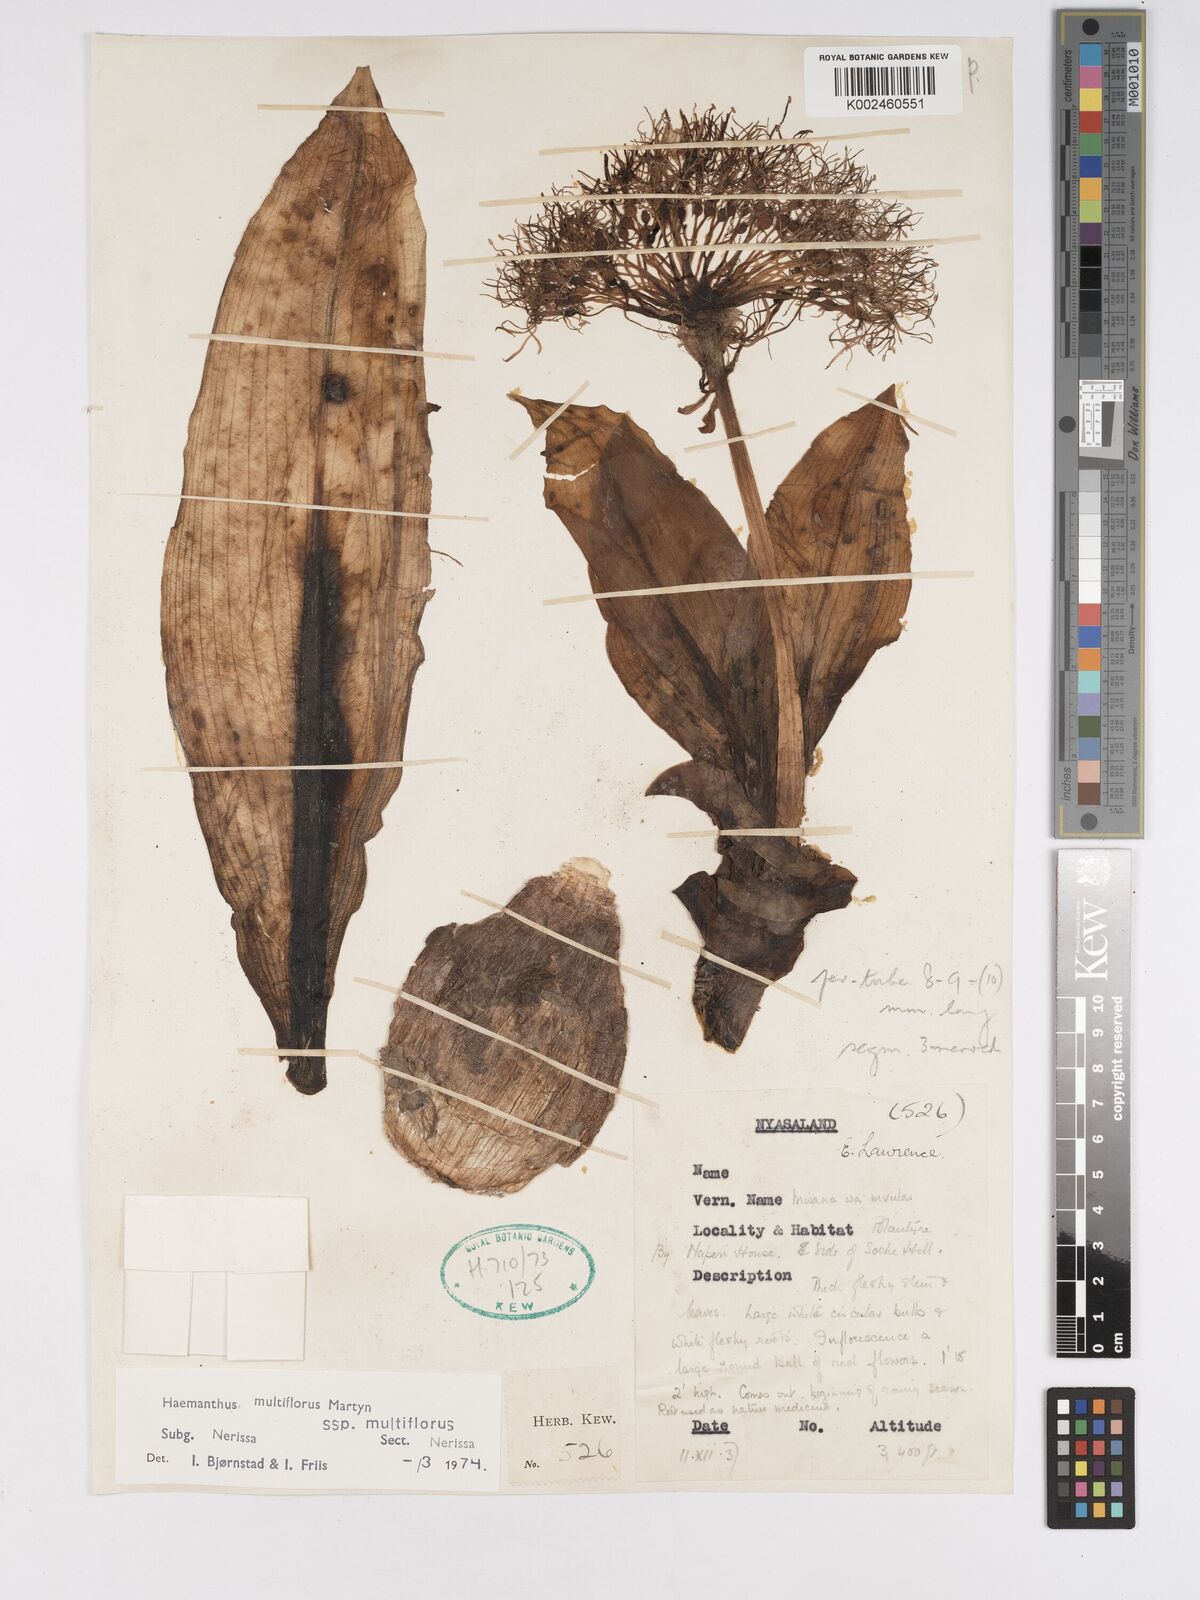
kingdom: Plantae
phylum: Tracheophyta
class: Liliopsida
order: Asparagales
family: Amaryllidaceae
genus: Scadoxus
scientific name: Scadoxus multiflorus
